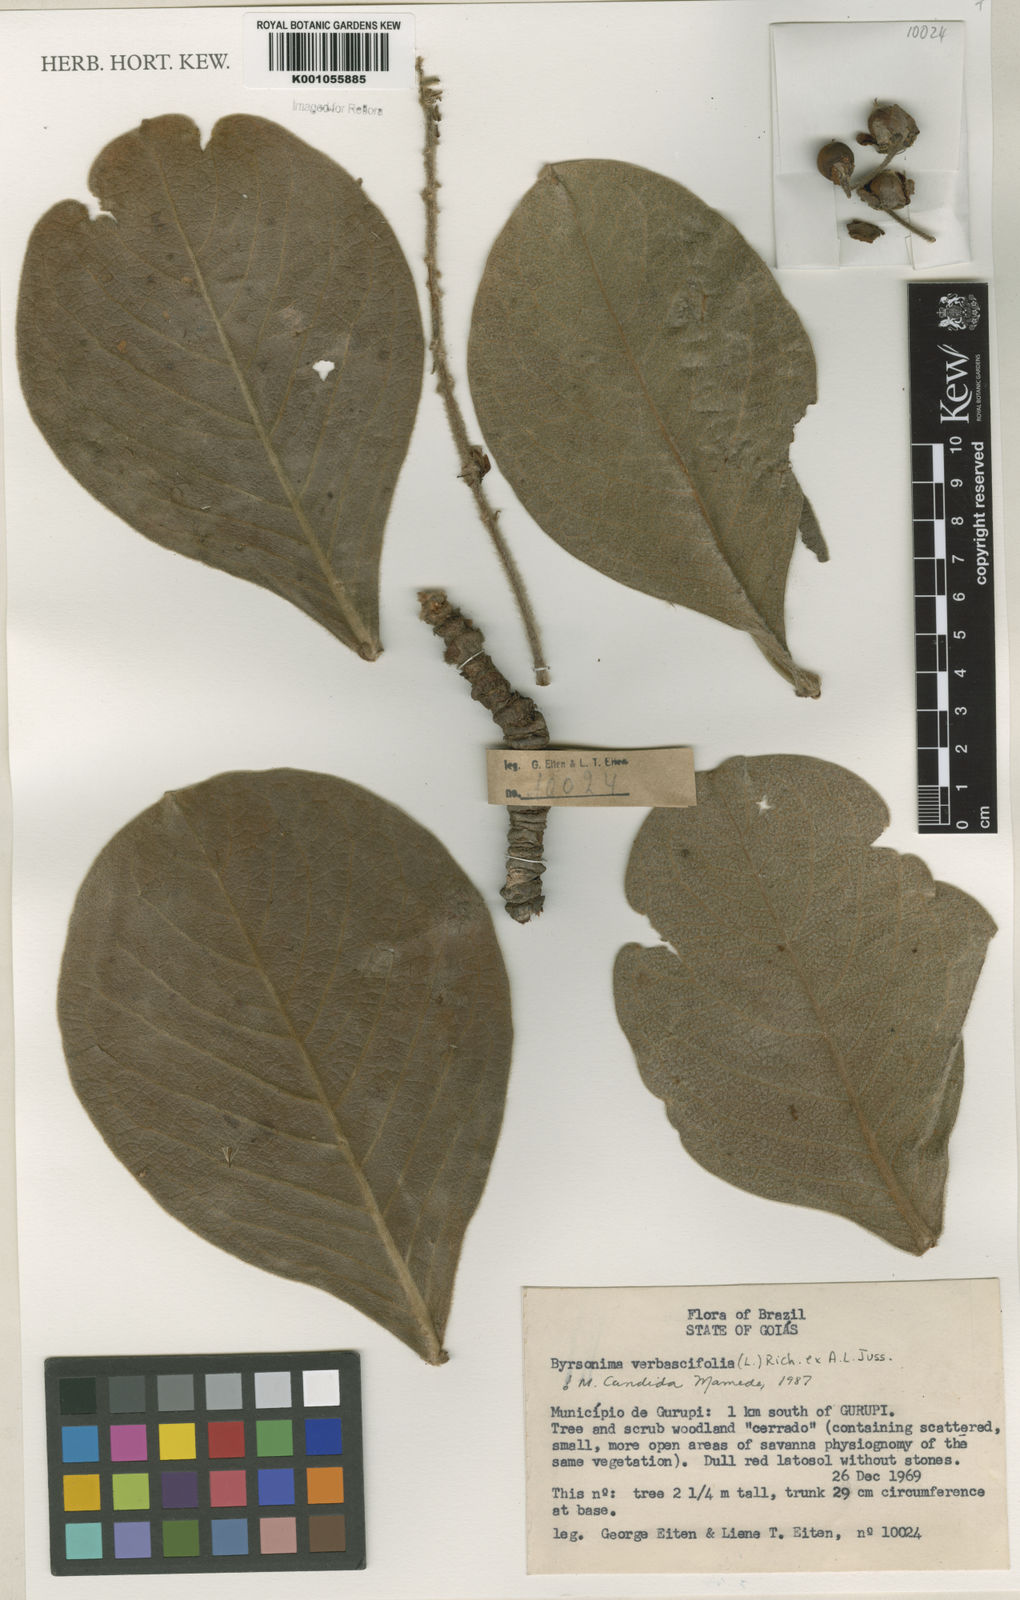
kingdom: Plantae
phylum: Tracheophyta
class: Magnoliopsida
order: Malpighiales
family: Malpighiaceae
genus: Byrsonima
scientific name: Byrsonima verbascifolia
